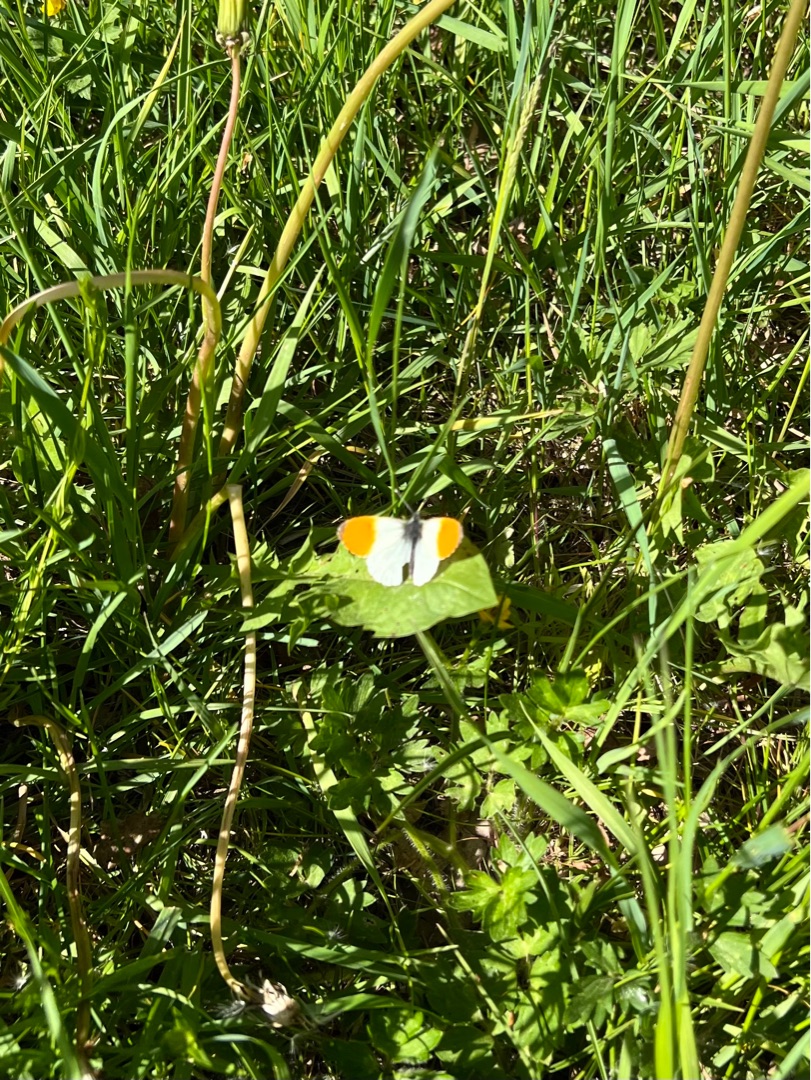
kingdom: Animalia
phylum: Arthropoda
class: Insecta
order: Lepidoptera
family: Pieridae
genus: Anthocharis
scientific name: Anthocharis cardamines
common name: Aurora
